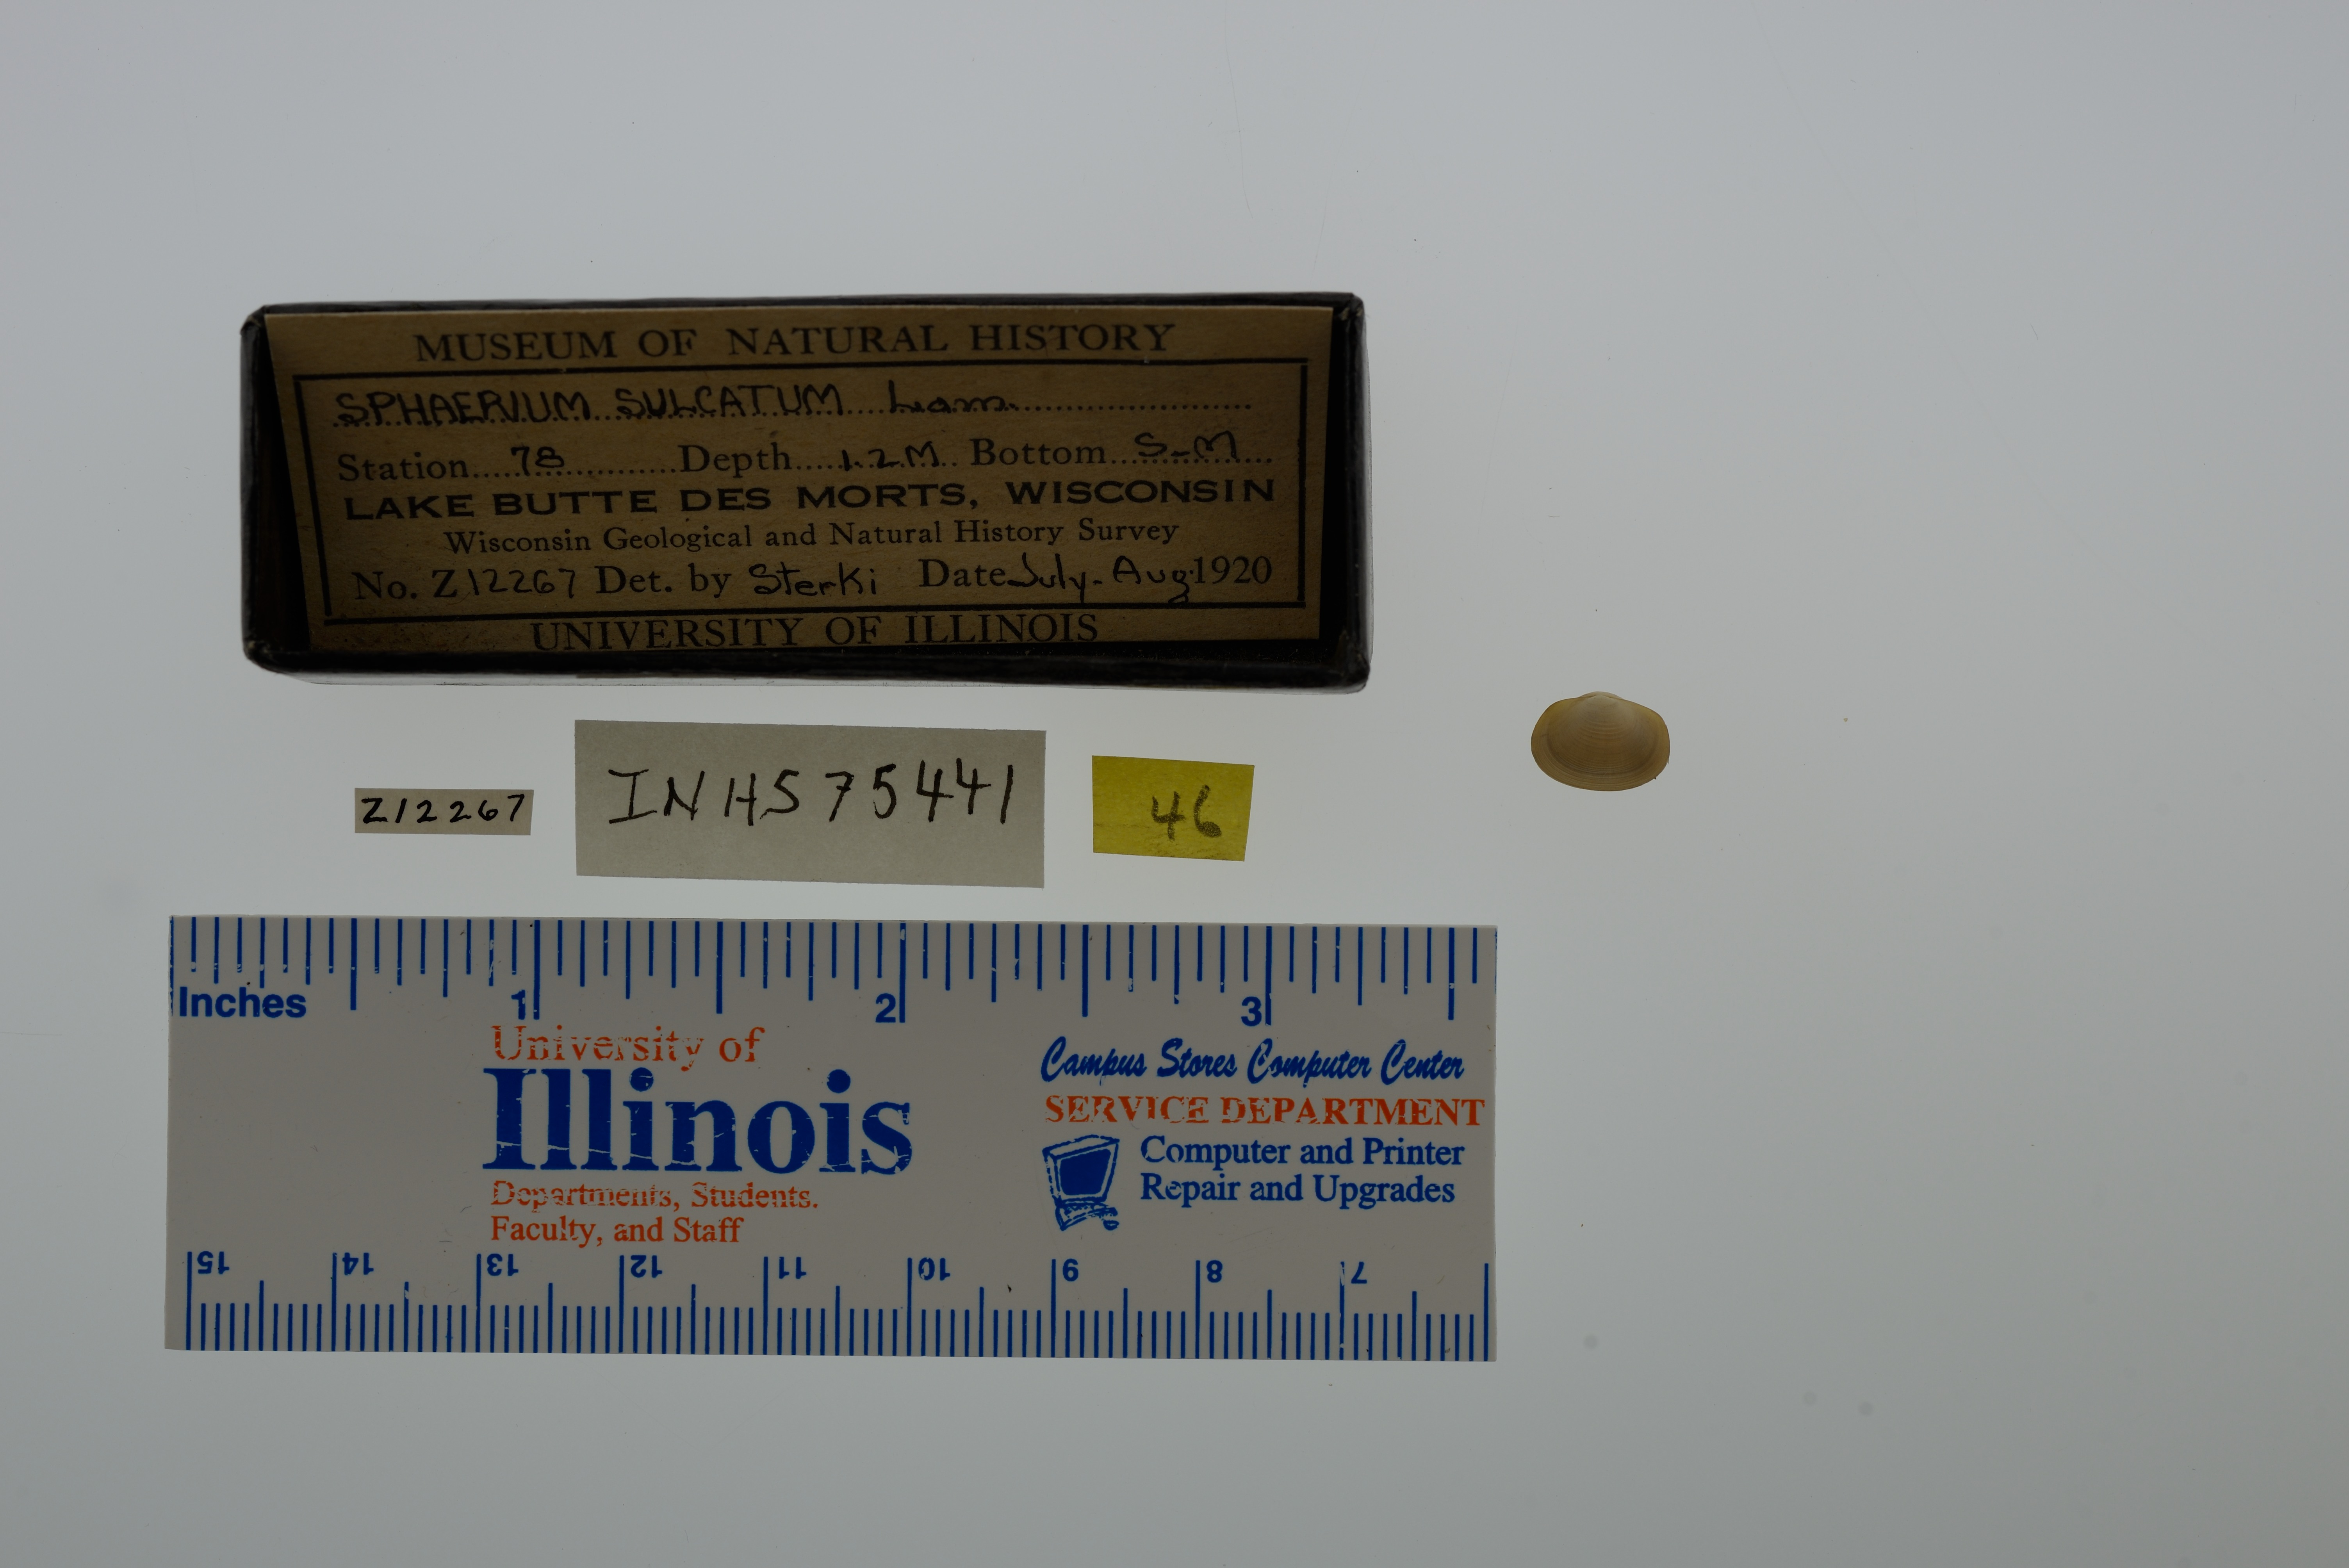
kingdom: Animalia
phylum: Mollusca
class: Bivalvia
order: Sphaeriida
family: Sphaeriidae
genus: Sphaerium
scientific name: Sphaerium simile
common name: Grooved fingernailclam
